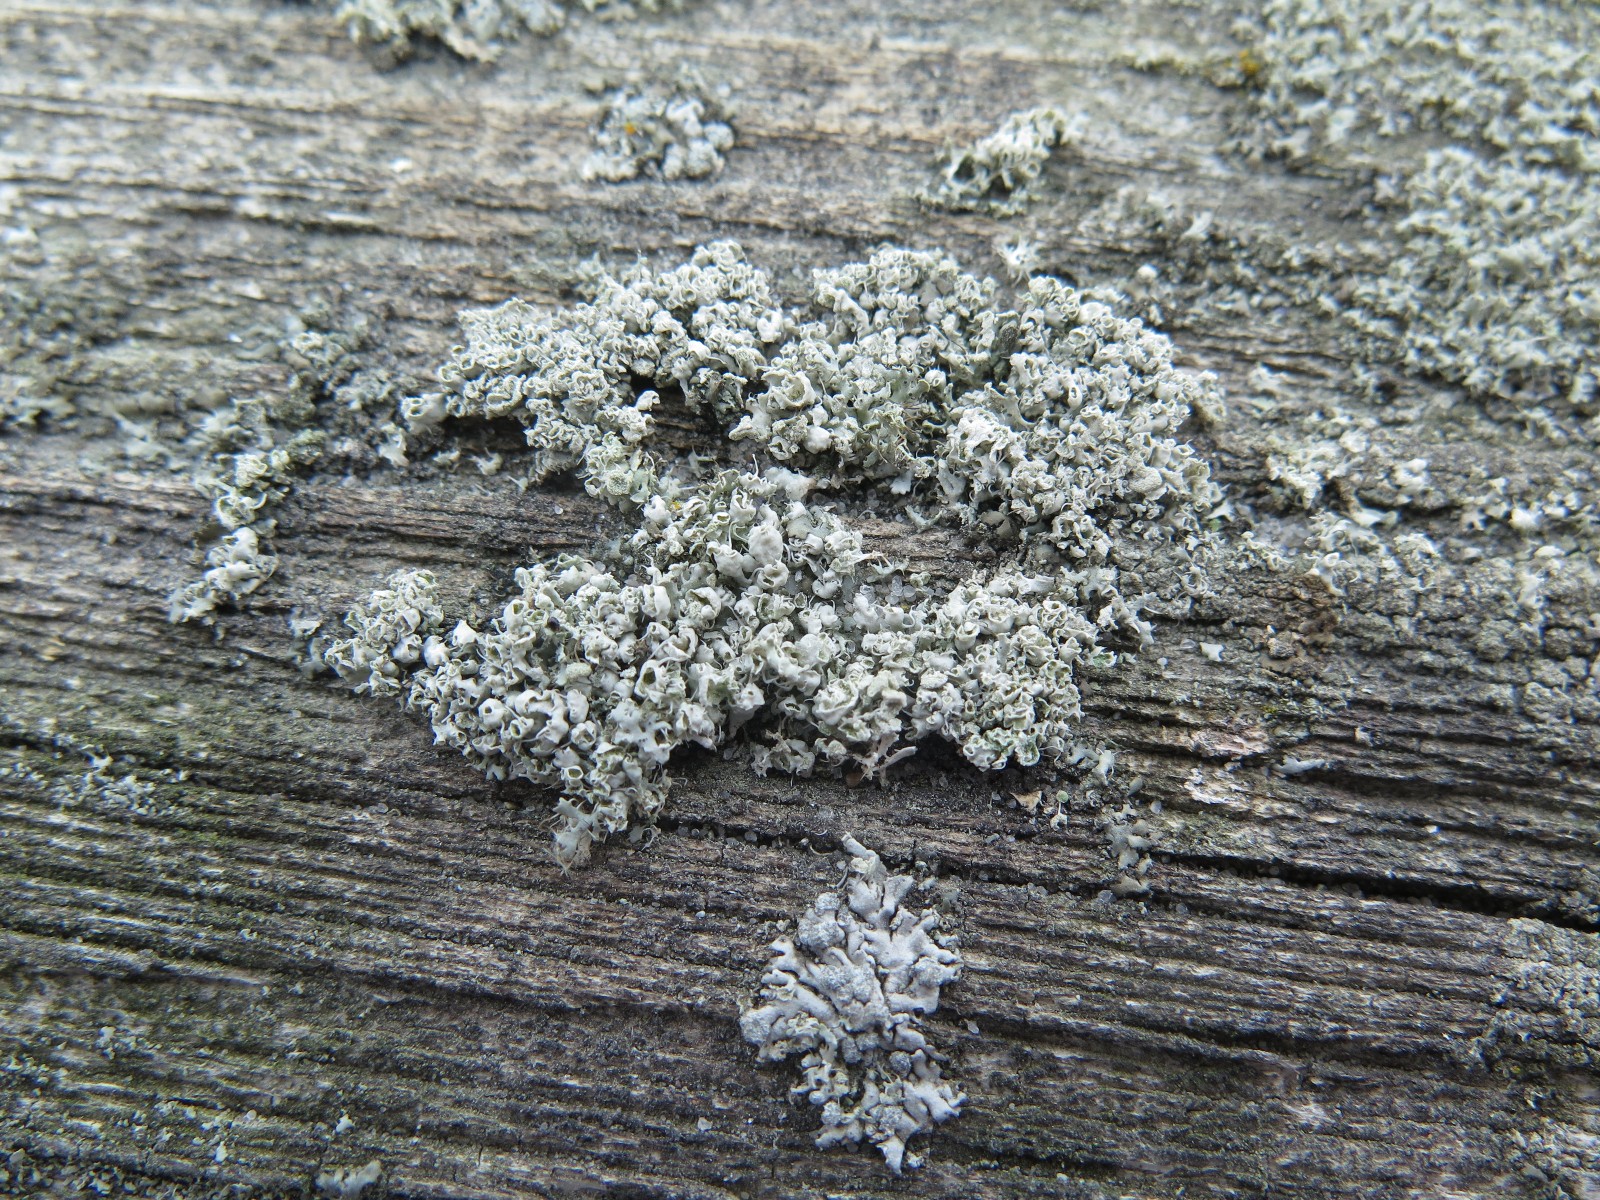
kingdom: Fungi
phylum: Ascomycota
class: Lecanoromycetes
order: Caliciales
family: Physciaceae
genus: Physcia
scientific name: Physcia adscendens
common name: hætte-rosetlav
